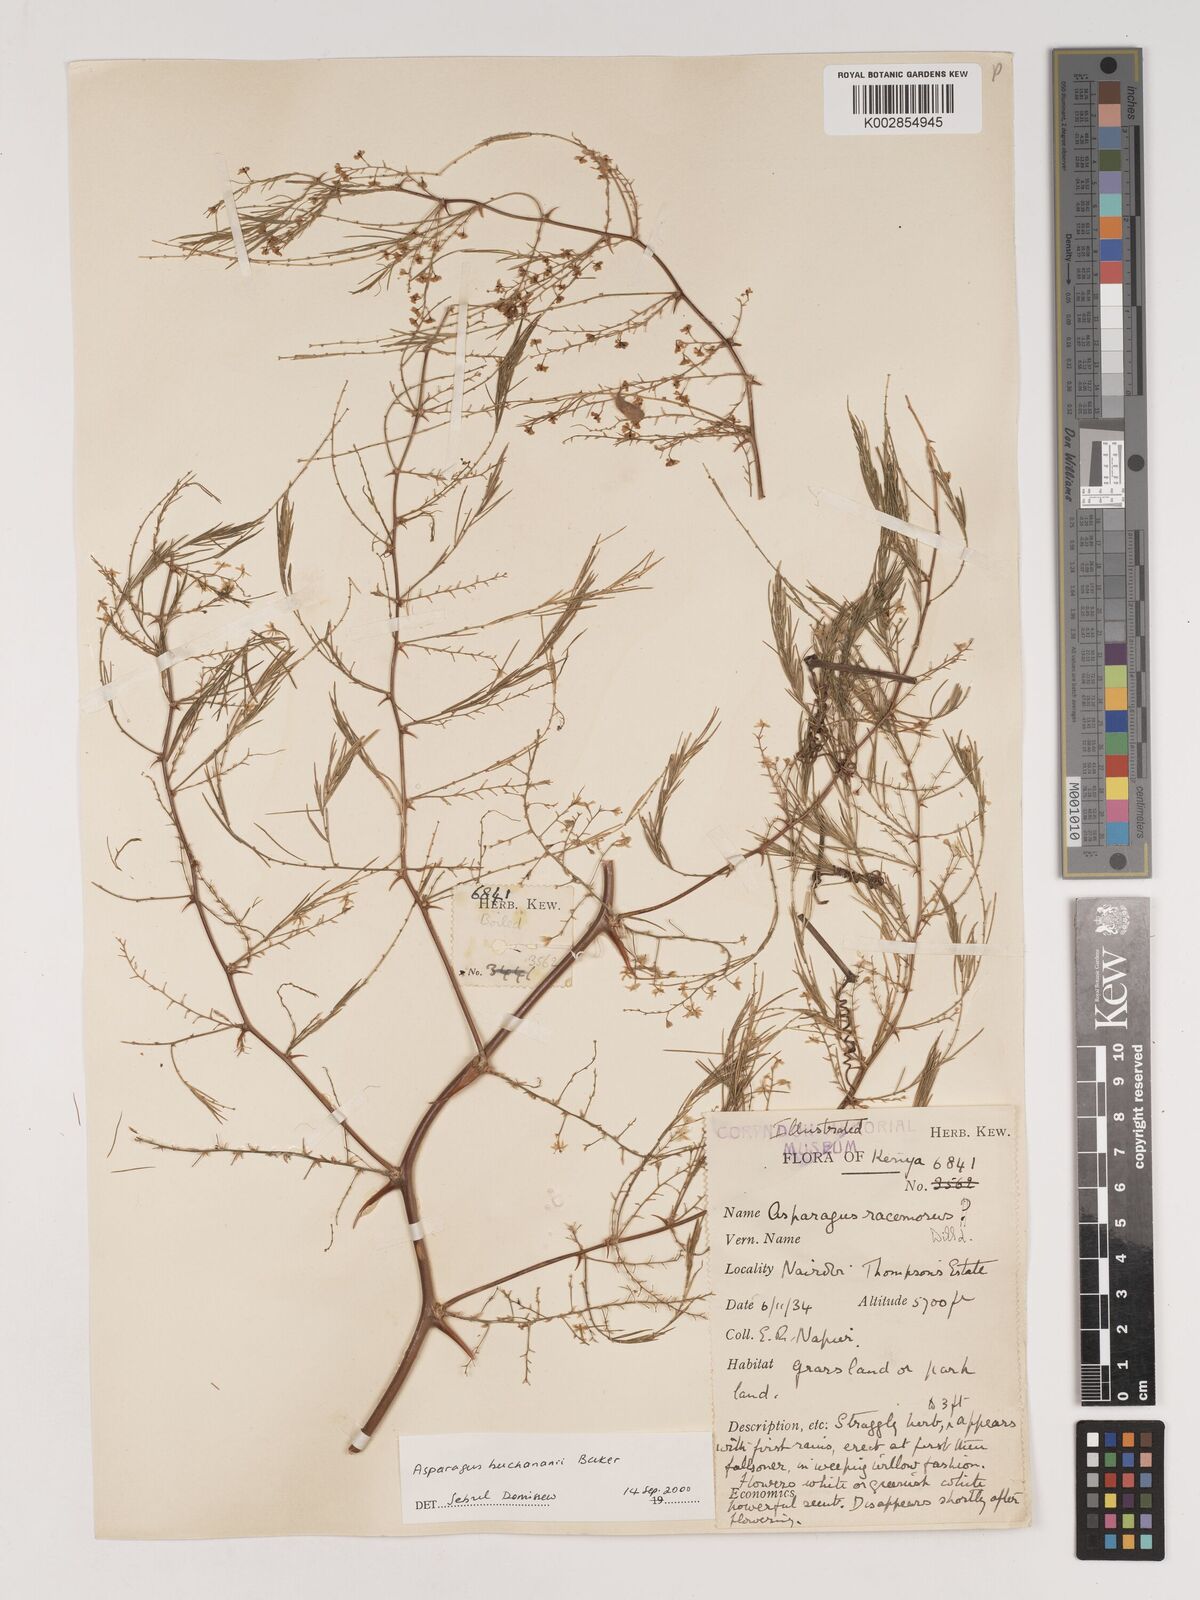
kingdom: Plantae
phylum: Tracheophyta
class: Liliopsida
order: Asparagales
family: Asparagaceae
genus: Asparagus
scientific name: Asparagus buchananii
